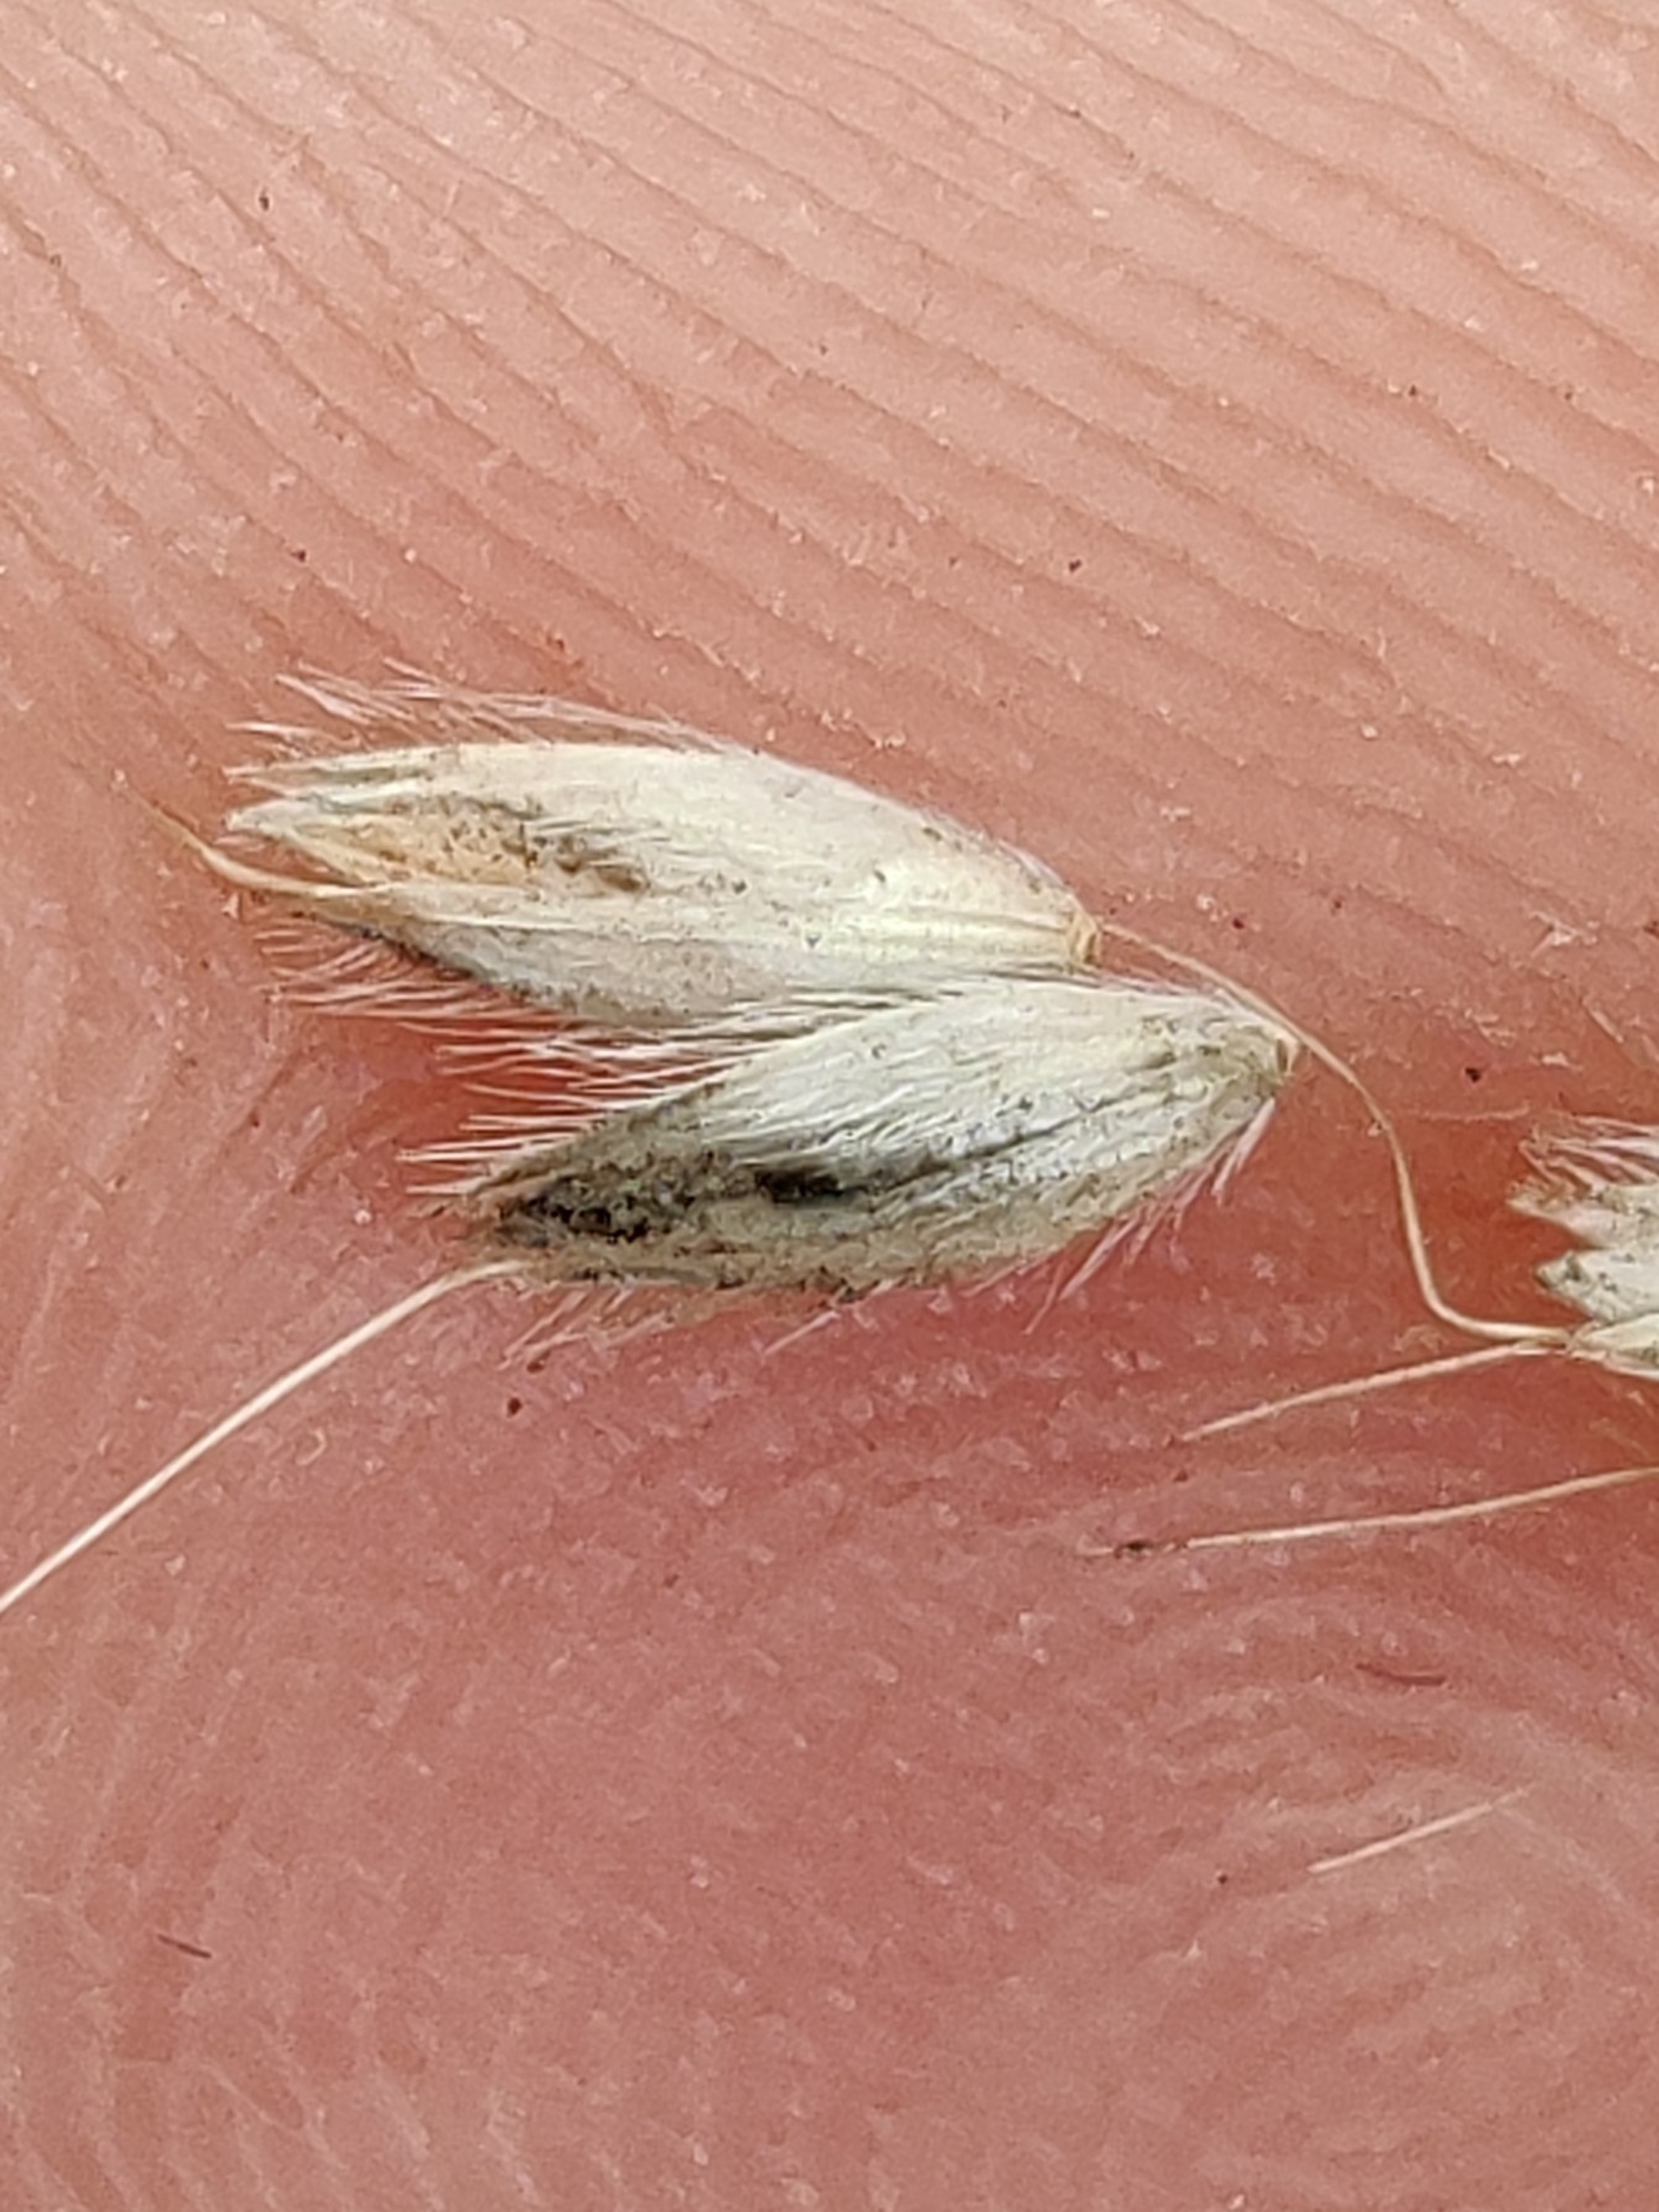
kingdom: Plantae
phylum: Tracheophyta
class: Liliopsida
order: Poales
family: Poaceae
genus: Alopecurus
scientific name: Alopecurus pratensis
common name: Eng-rævehale
